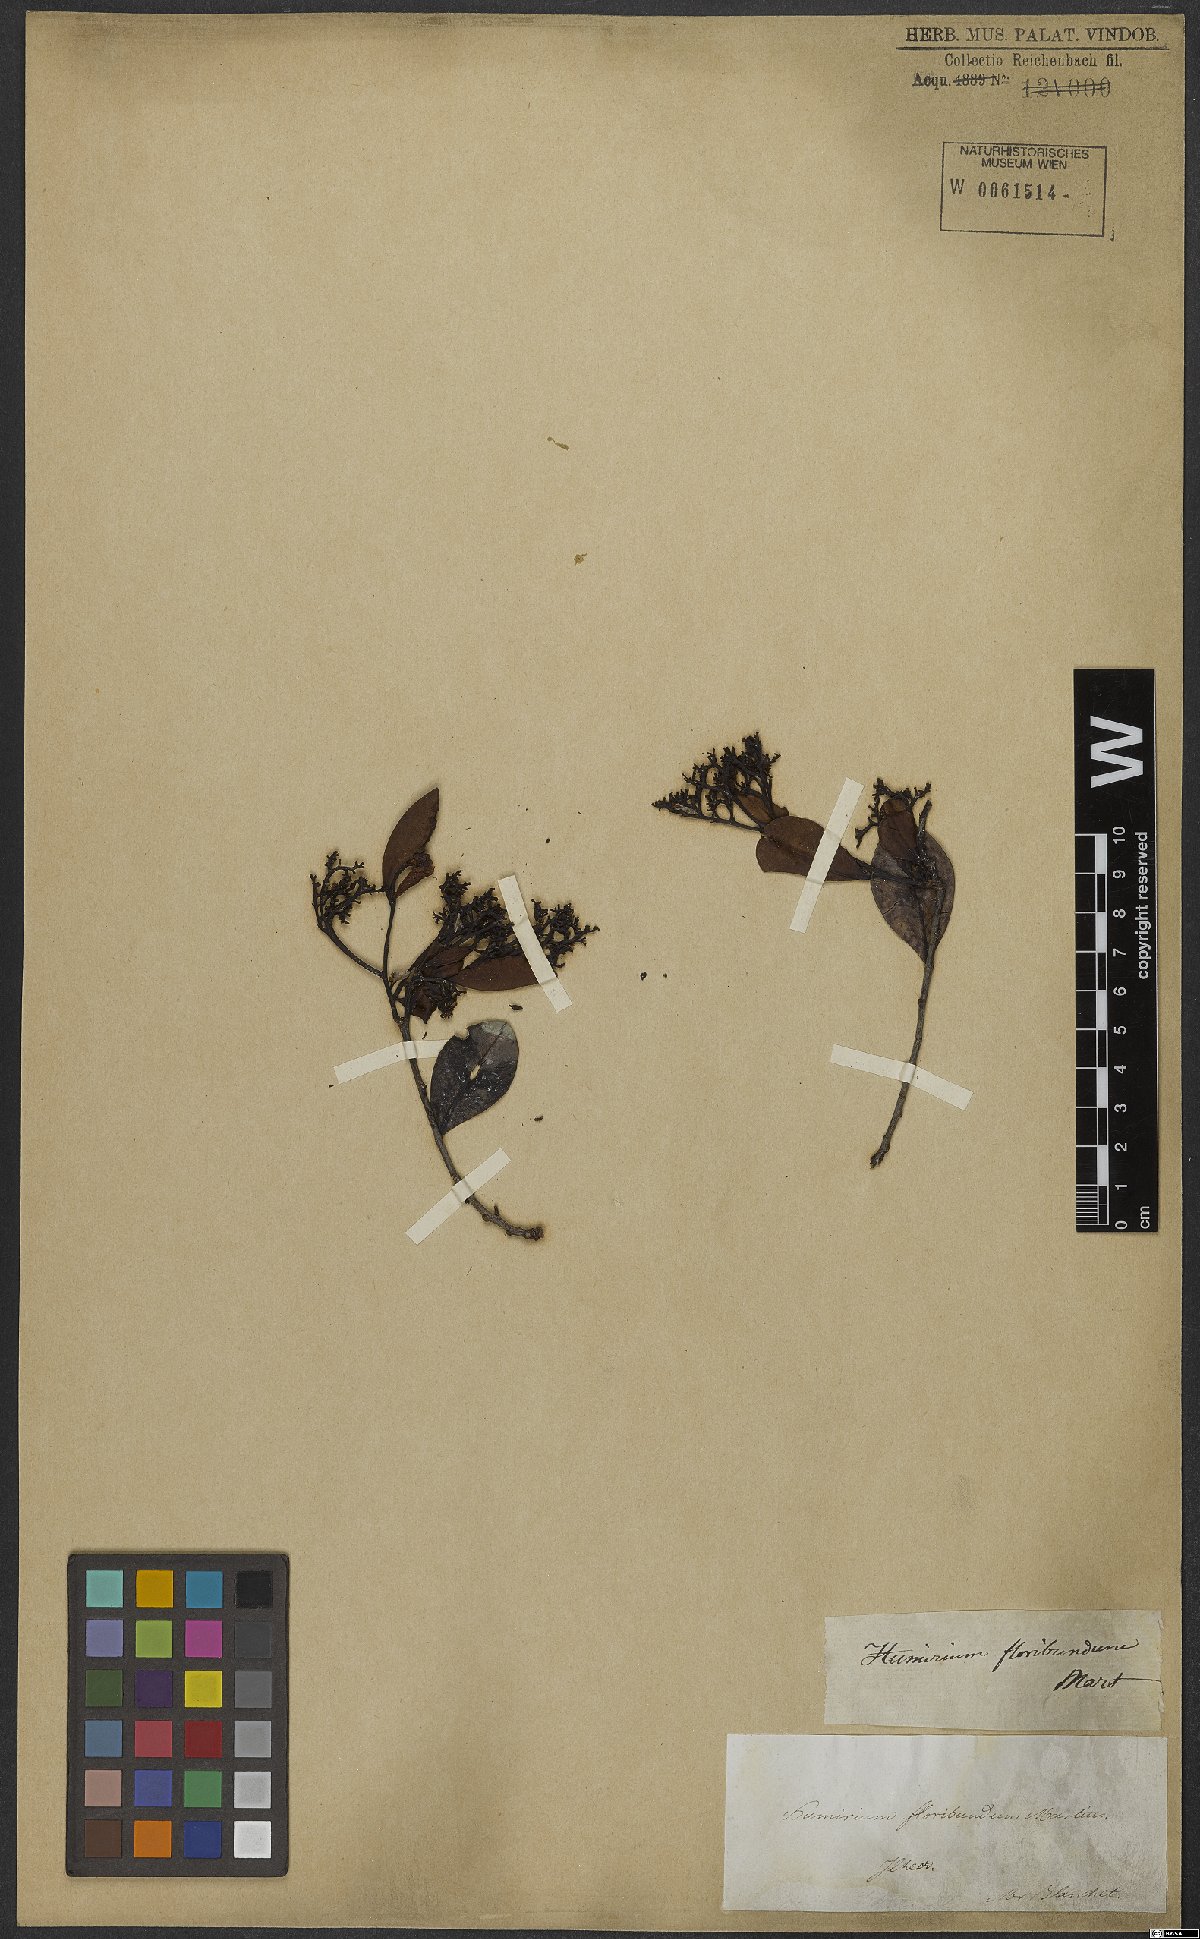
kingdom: Plantae
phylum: Tracheophyta
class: Magnoliopsida
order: Malpighiales
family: Humiriaceae
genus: Humiria
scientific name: Humiria balsamifera
